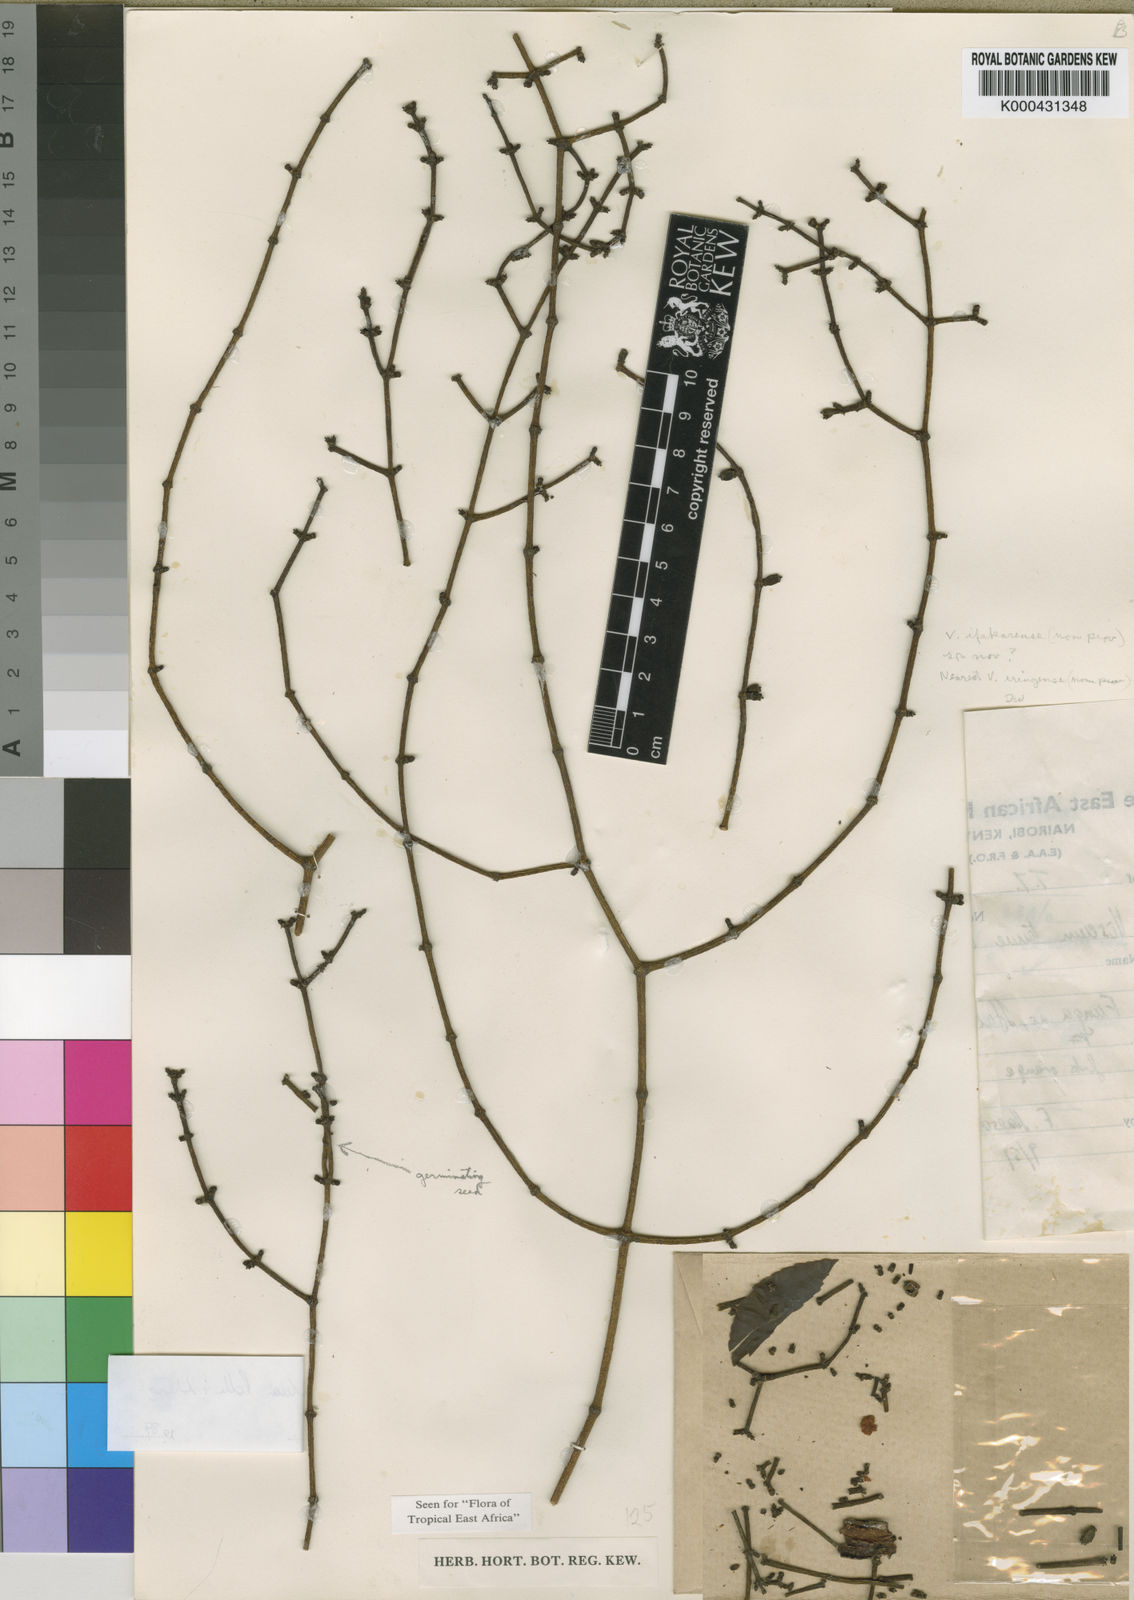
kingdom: Plantae
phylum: Tracheophyta
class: Magnoliopsida
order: Santalales
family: Viscaceae
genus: Viscum
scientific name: Viscum exiguum
